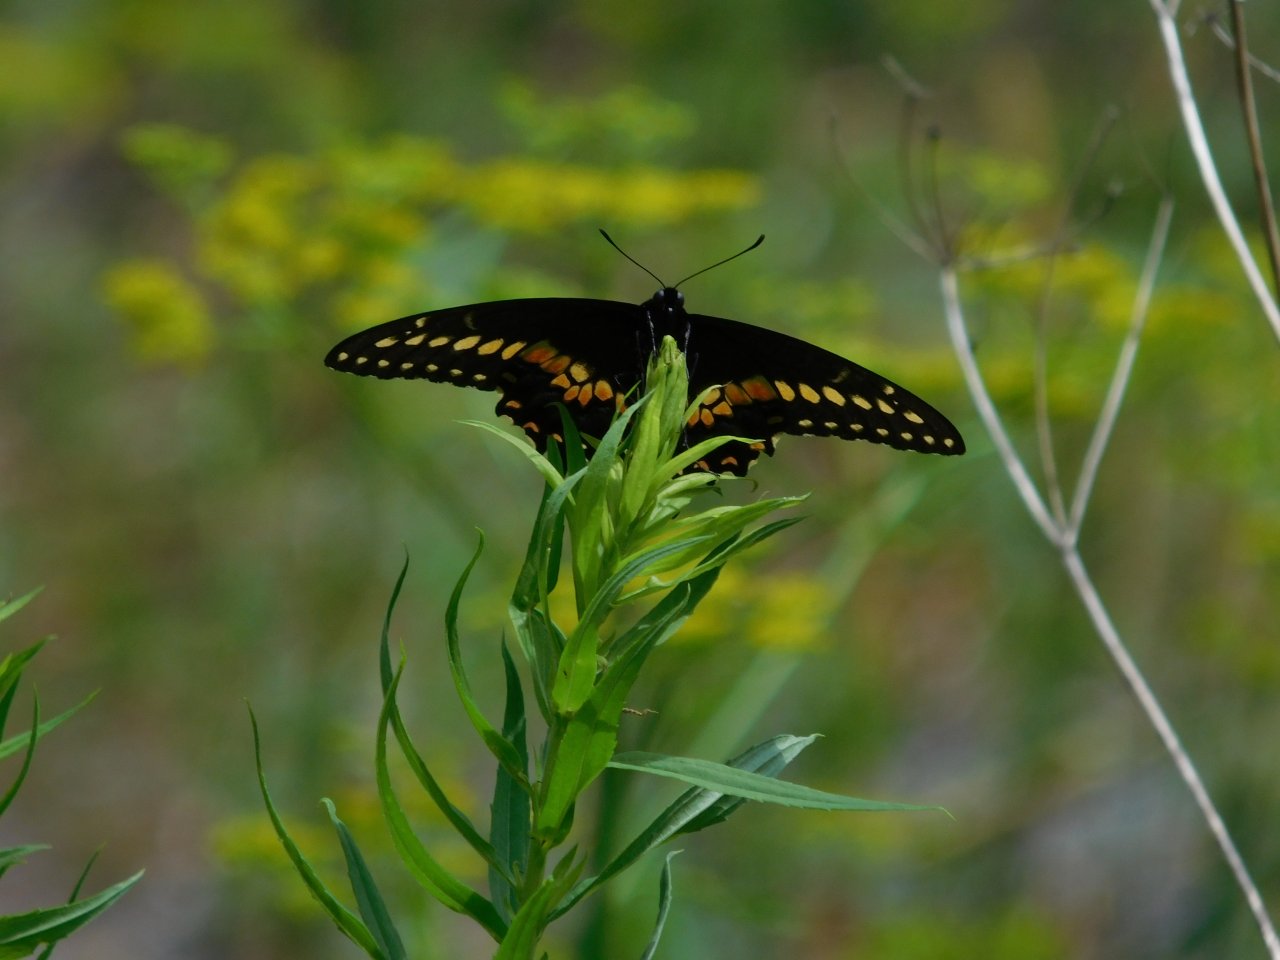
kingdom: Animalia
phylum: Arthropoda
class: Insecta
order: Lepidoptera
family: Papilionidae
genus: Papilio
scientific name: Papilio polyxenes
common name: Black Swallowtail
